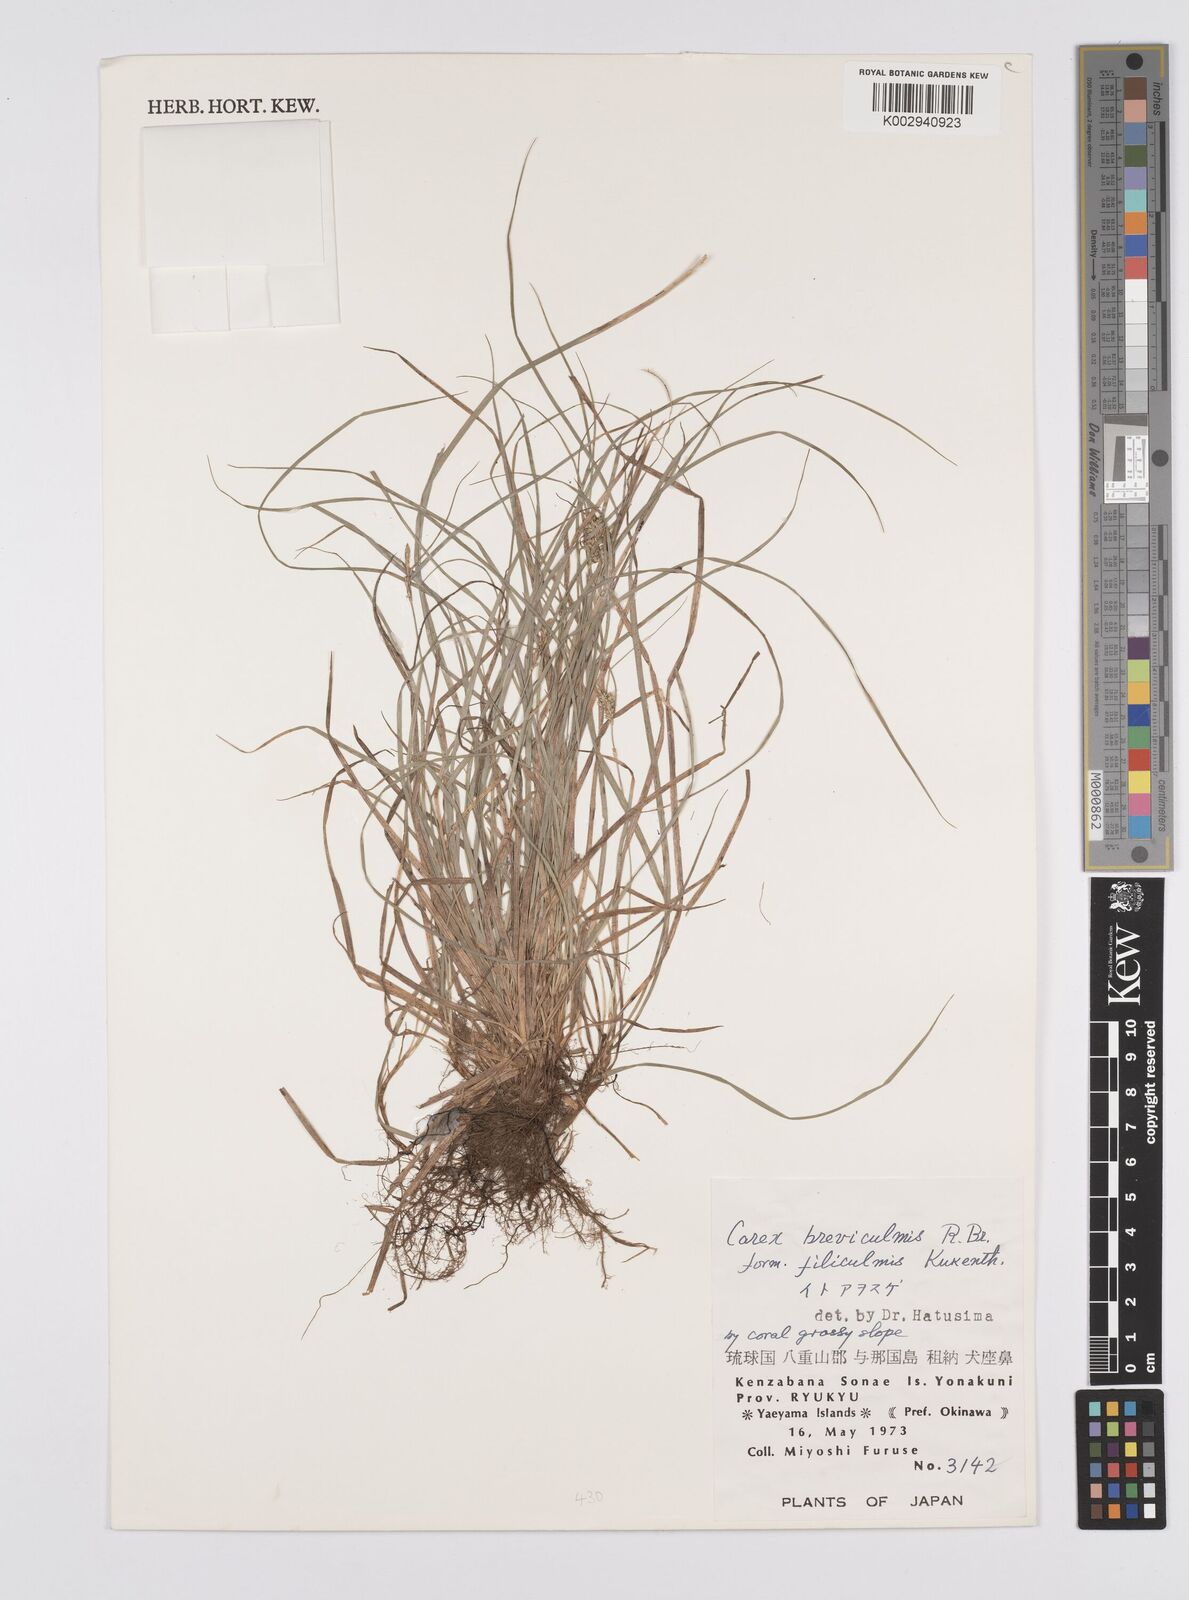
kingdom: Plantae
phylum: Tracheophyta
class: Liliopsida
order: Poales
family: Cyperaceae
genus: Carex
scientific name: Carex breviculmis
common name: Asian shortstem sedge
